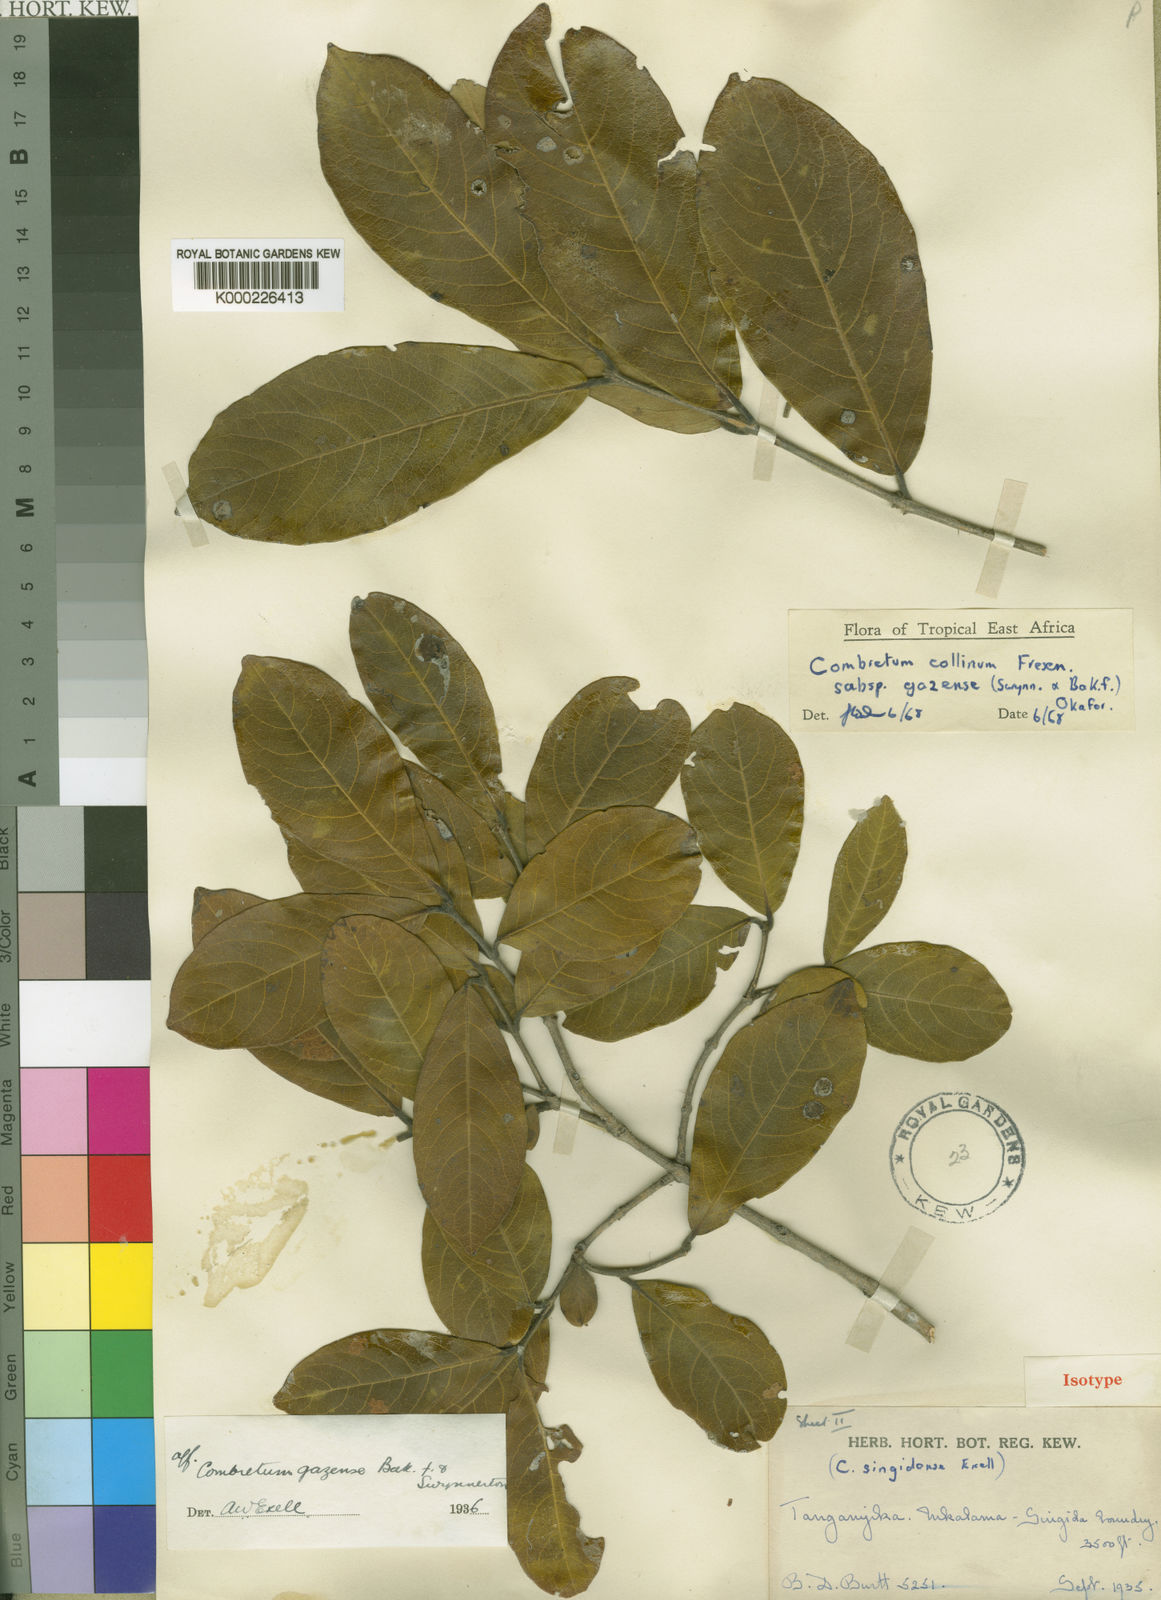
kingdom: Plantae
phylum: Tracheophyta
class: Magnoliopsida
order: Myrtales
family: Combretaceae
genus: Combretum
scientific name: Combretum collinum
